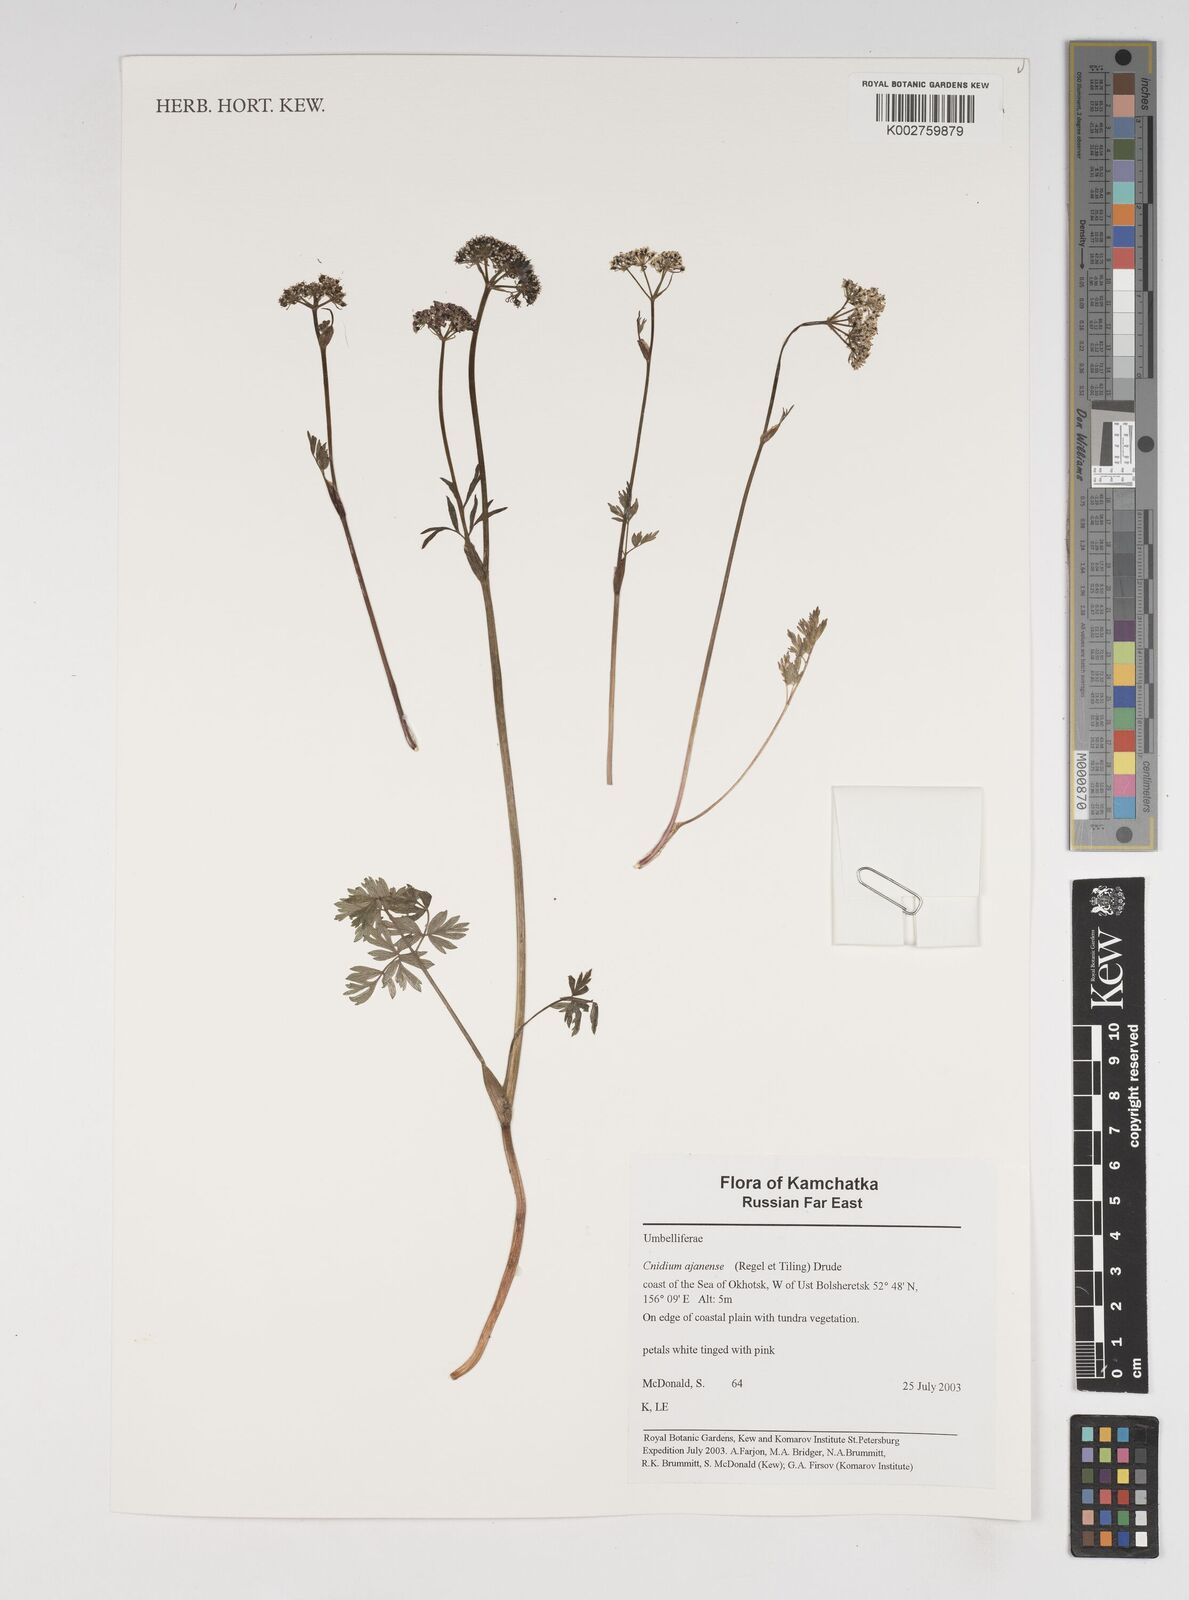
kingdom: Plantae
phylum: Tracheophyta
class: Magnoliopsida
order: Apiales
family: Apiaceae
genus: Tilingia
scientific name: Tilingia ajanensis
